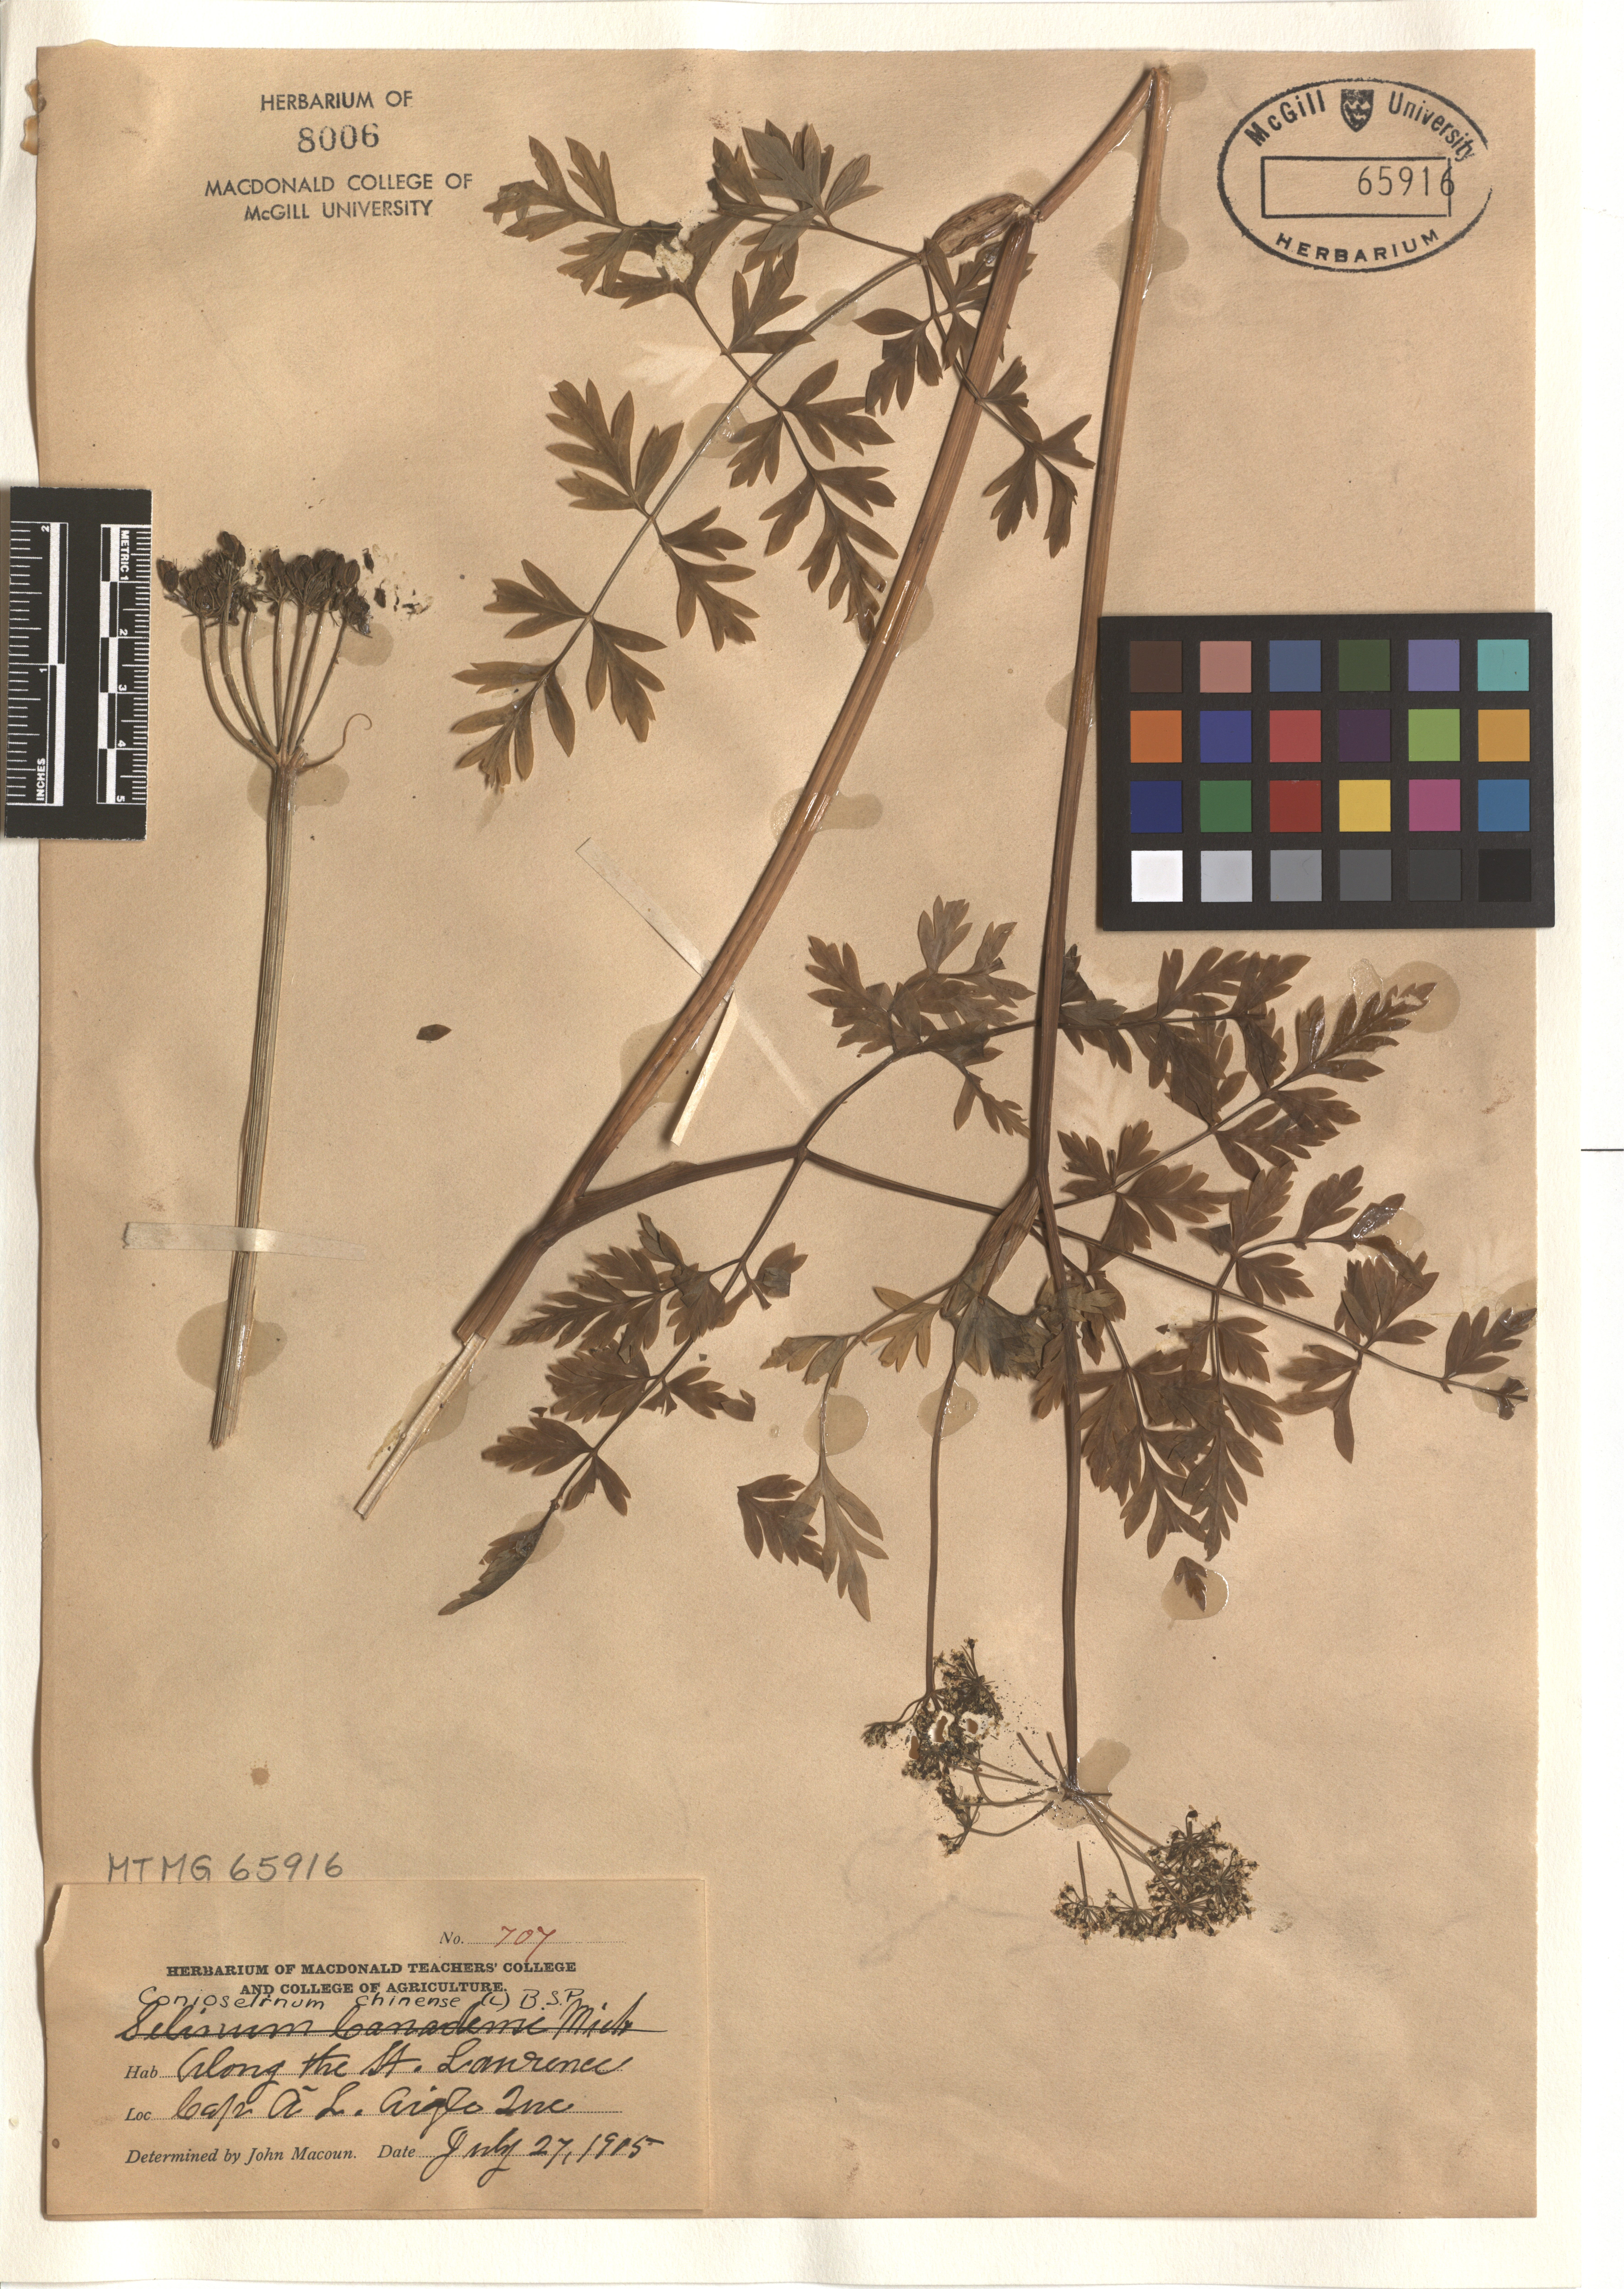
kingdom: Plantae
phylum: Tracheophyta
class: Magnoliopsida
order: Apiales
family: Apiaceae
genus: Kreidion
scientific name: Kreidion chinensis
